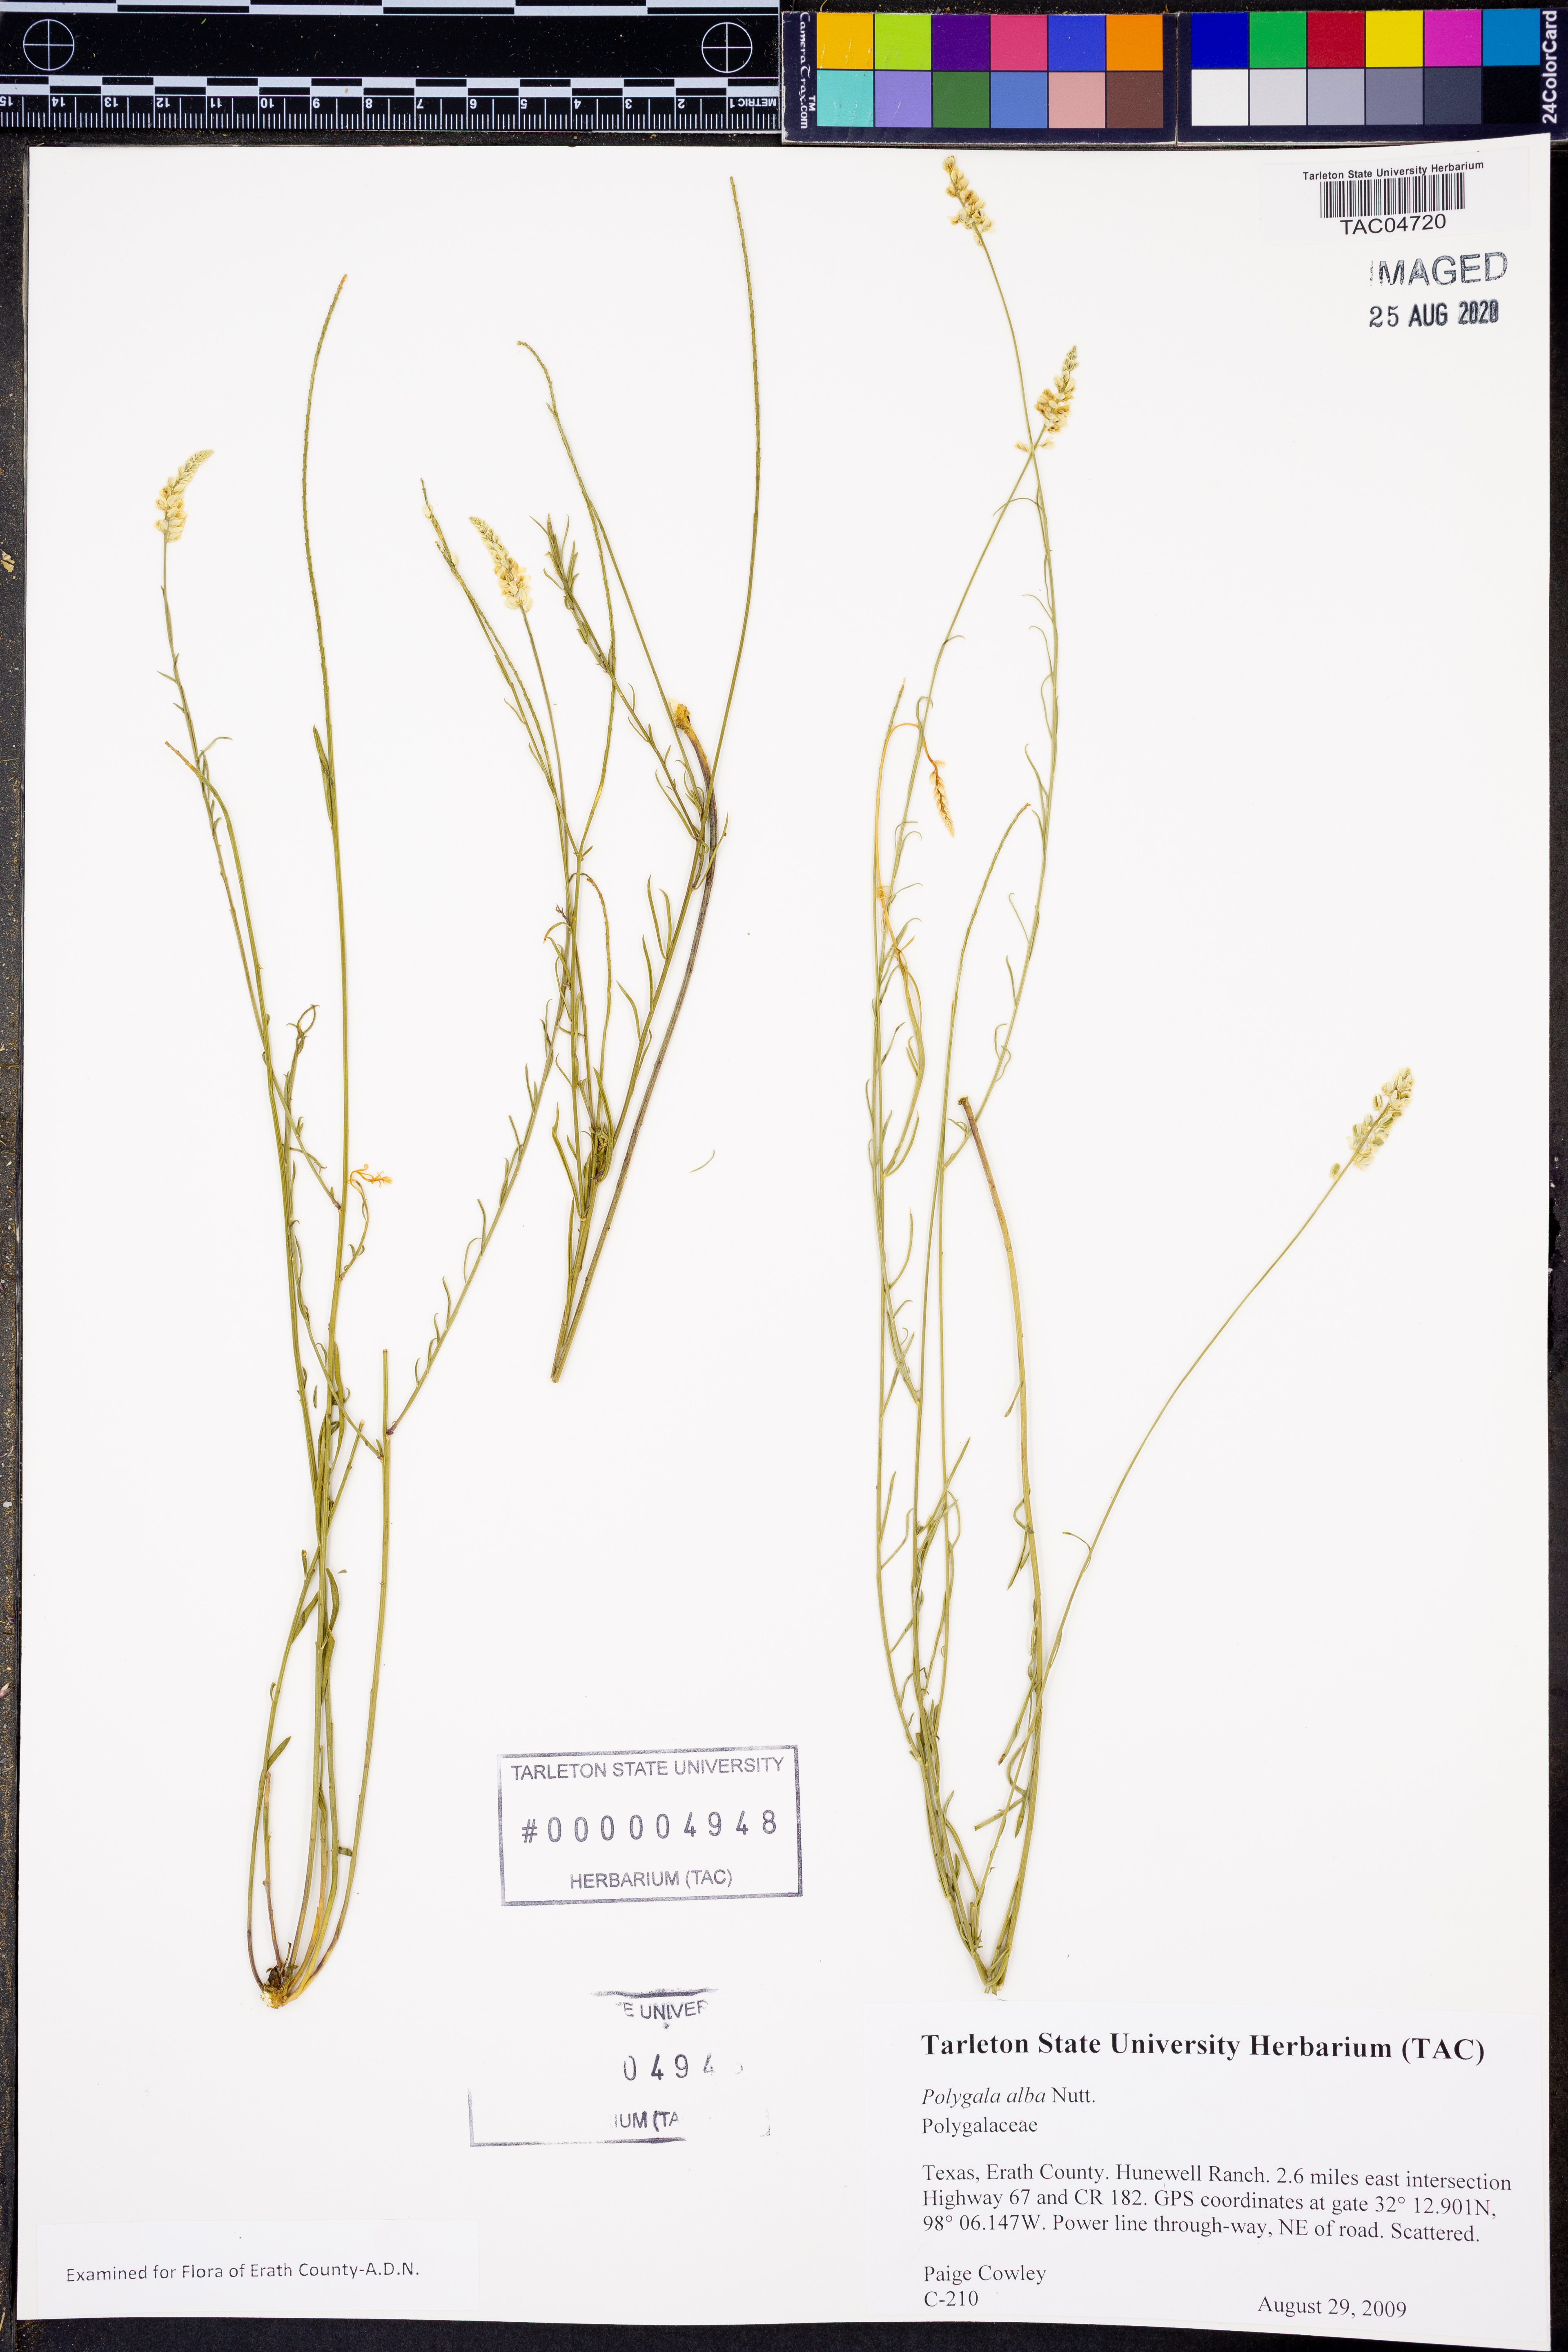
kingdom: Plantae
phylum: Tracheophyta
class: Magnoliopsida
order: Fabales
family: Polygalaceae
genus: Polygala
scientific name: Polygala alba
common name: White milkwort
